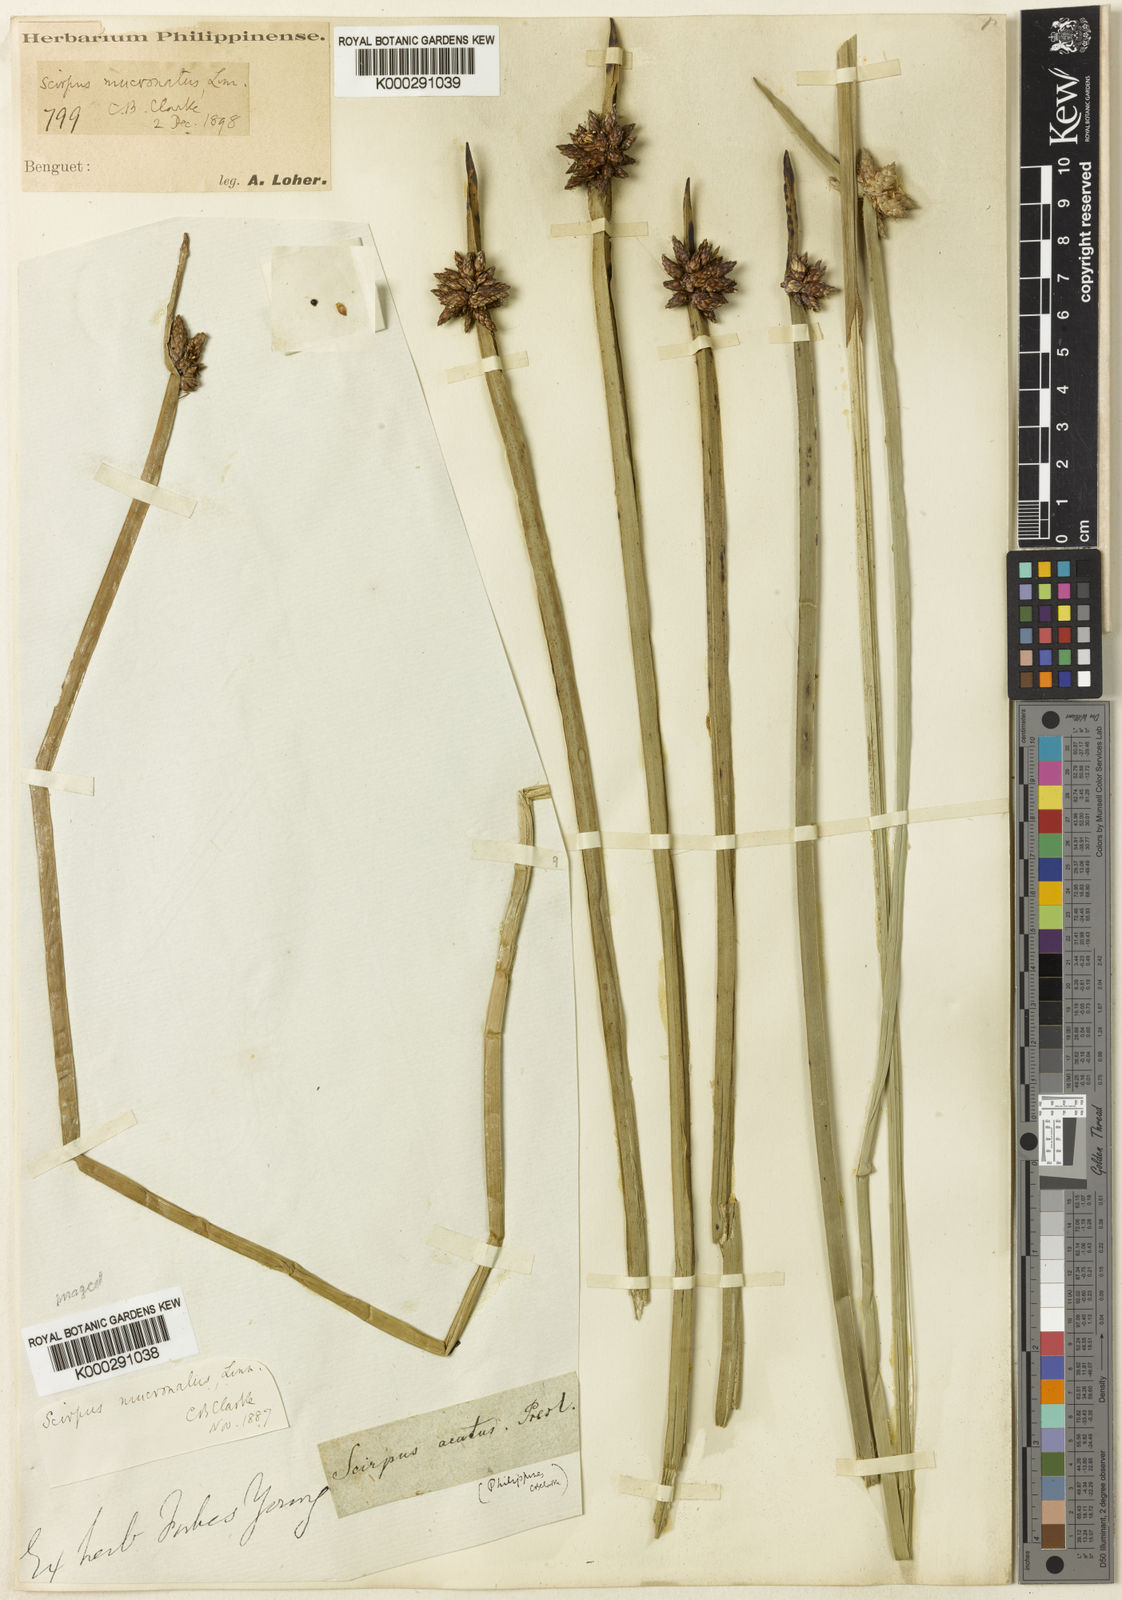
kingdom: Plantae
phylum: Tracheophyta
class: Liliopsida
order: Poales
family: Cyperaceae
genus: Schoenoplectiella
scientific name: Schoenoplectiella mucronata
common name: Bog bulrush
